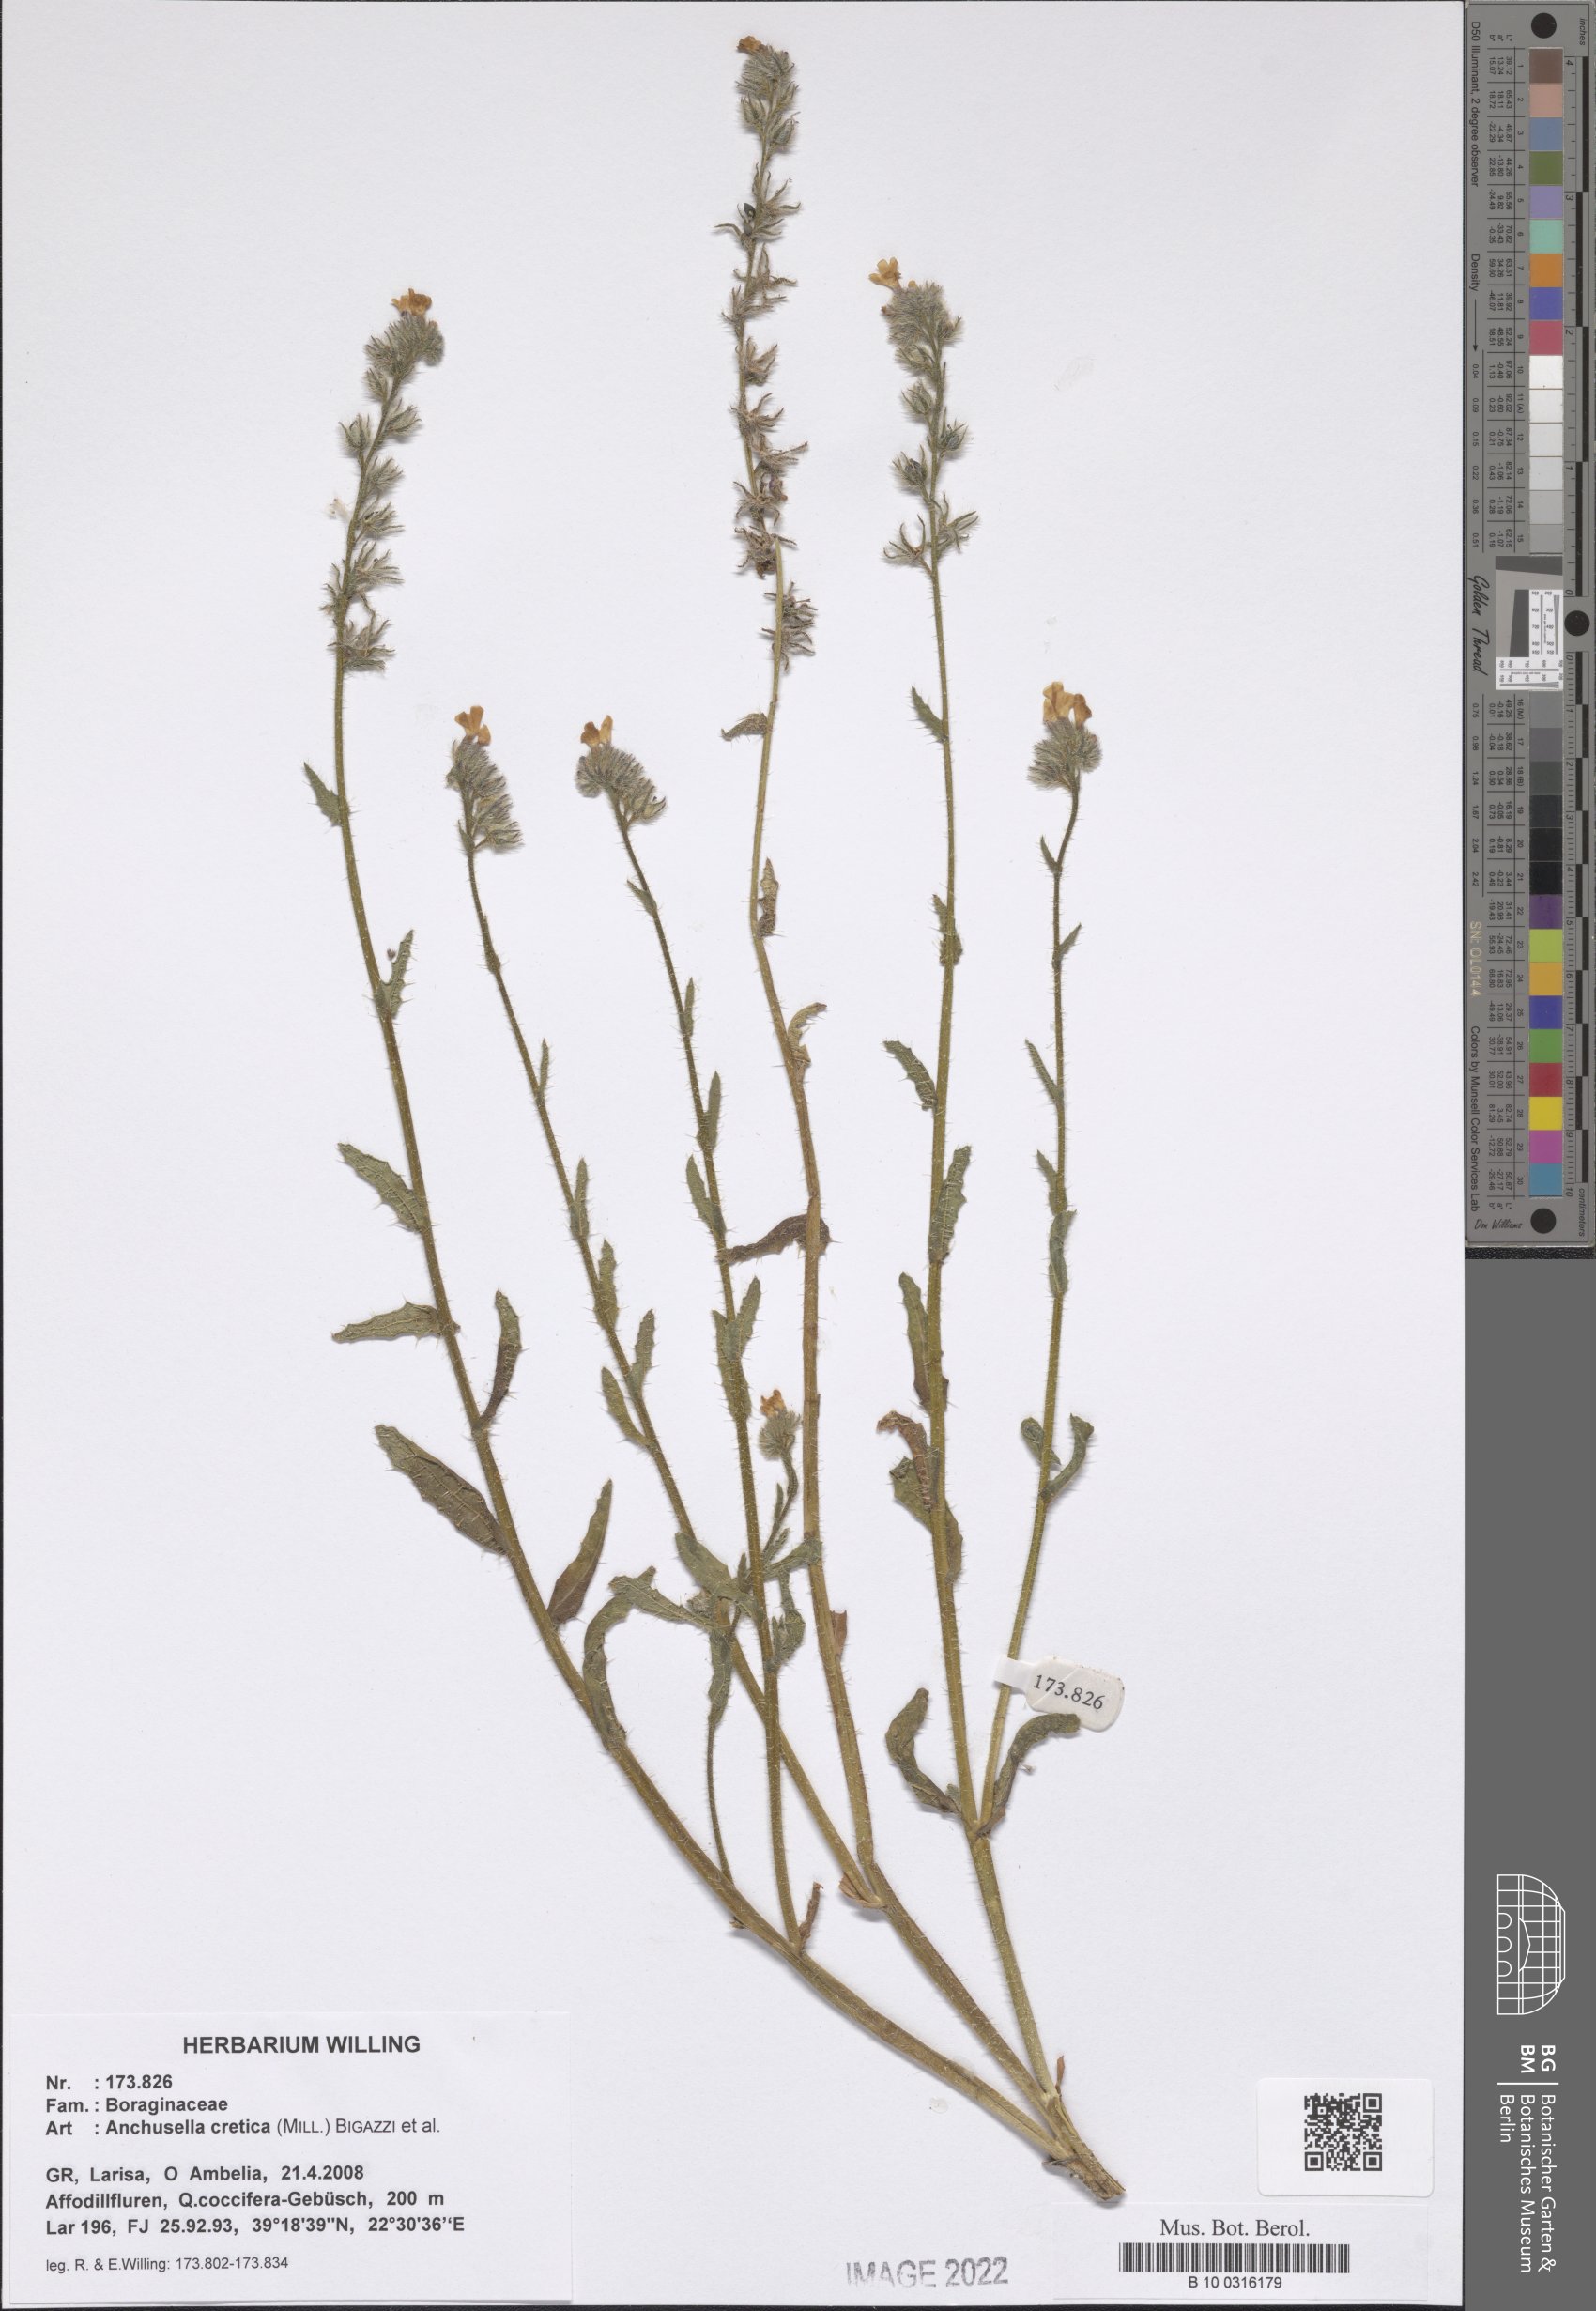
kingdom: Plantae
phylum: Tracheophyta
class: Magnoliopsida
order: Boraginales
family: Boraginaceae
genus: Anchusella
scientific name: Anchusella cretica
